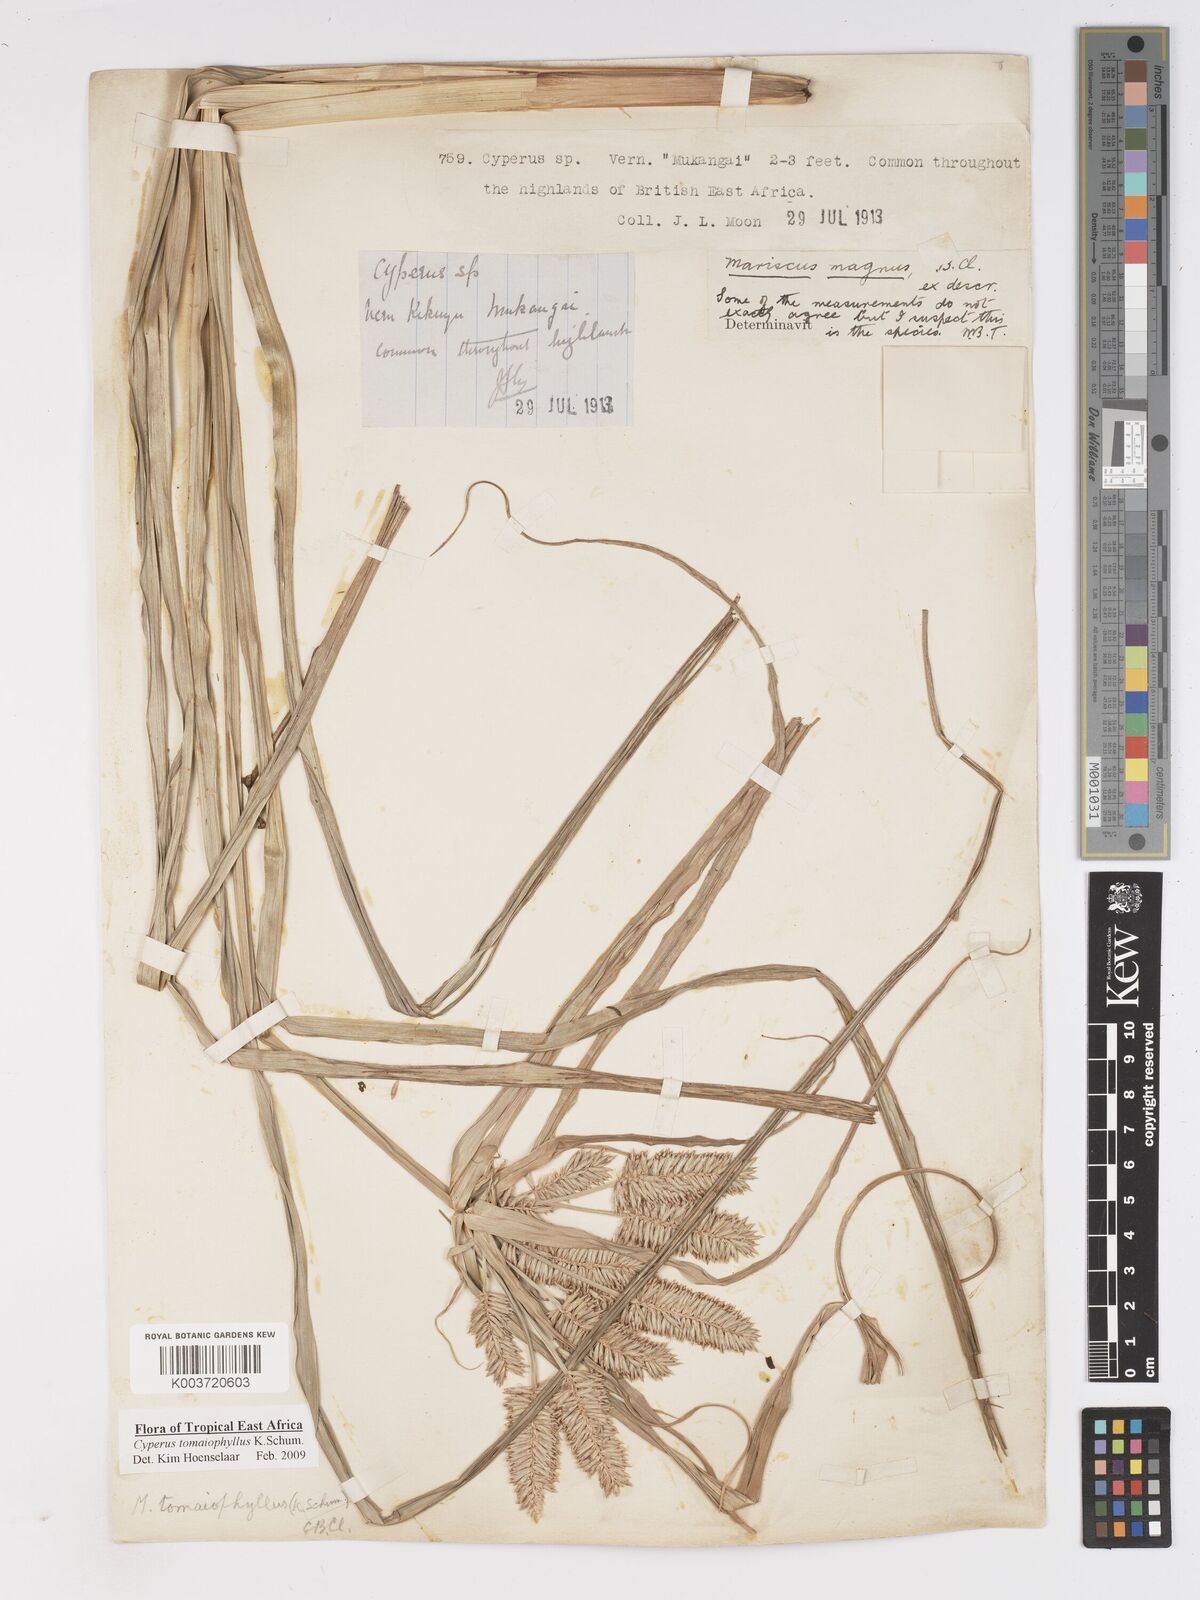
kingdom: Plantae
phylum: Tracheophyta
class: Liliopsida
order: Poales
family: Cyperaceae
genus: Cyperus
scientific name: Cyperus tomaiophyllus
